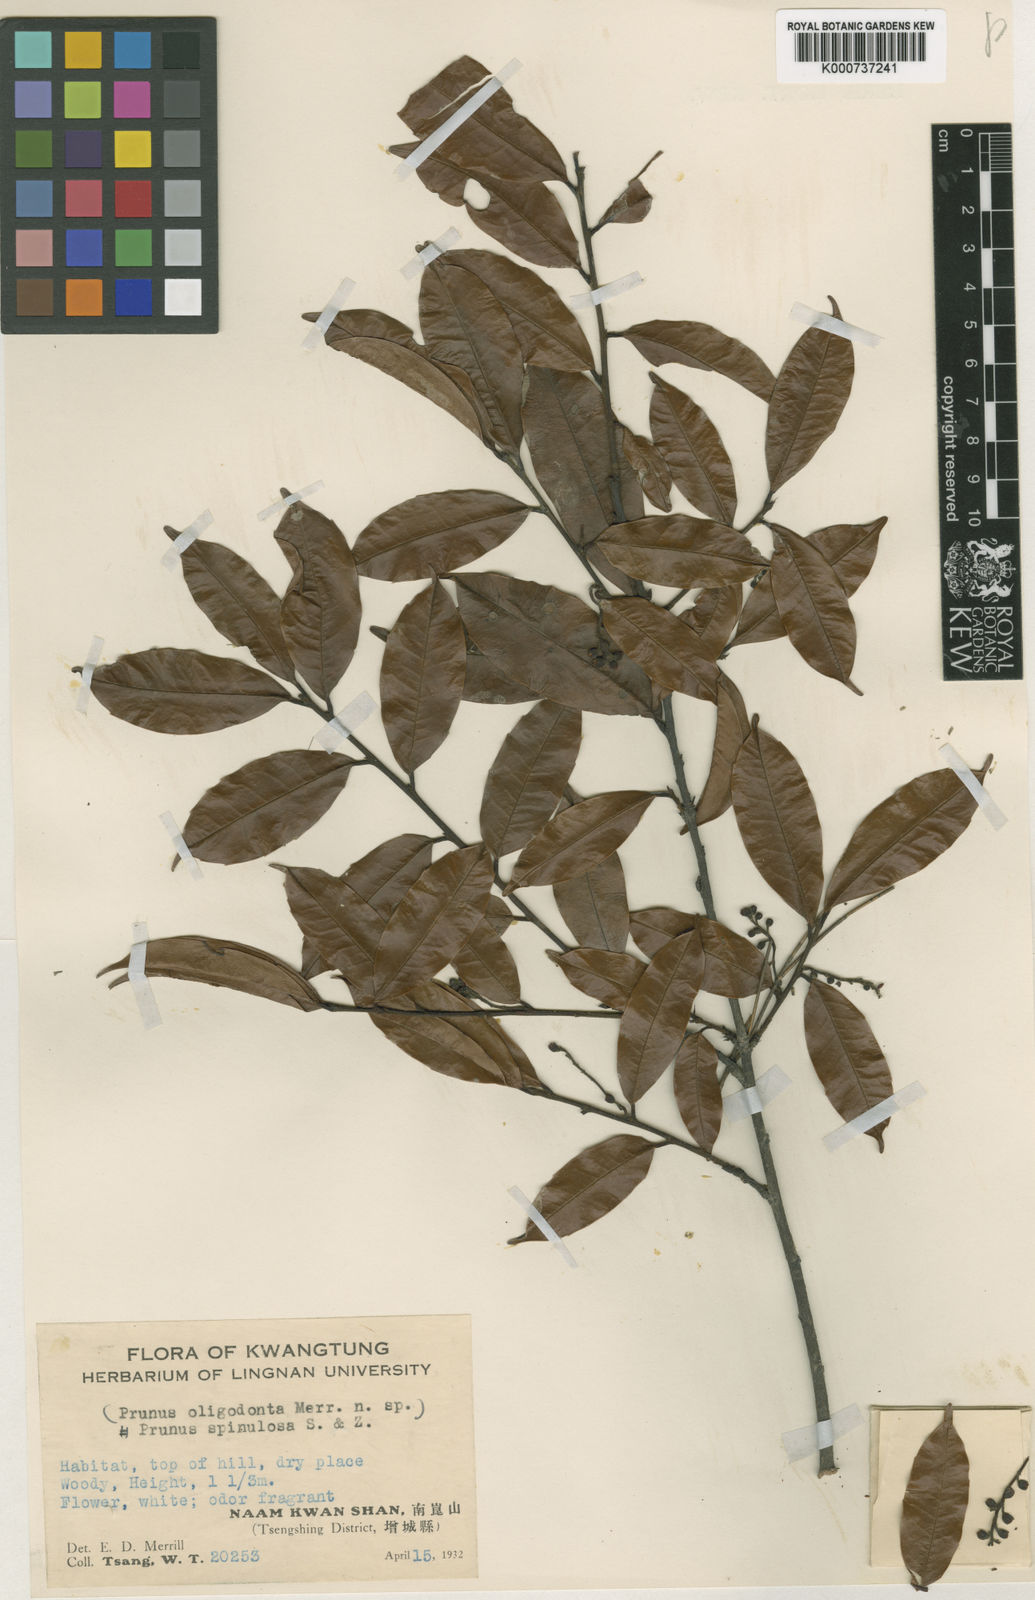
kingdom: Plantae
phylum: Tracheophyta
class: Magnoliopsida
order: Rosales
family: Rosaceae
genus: Prunus
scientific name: Prunus spinulosa
